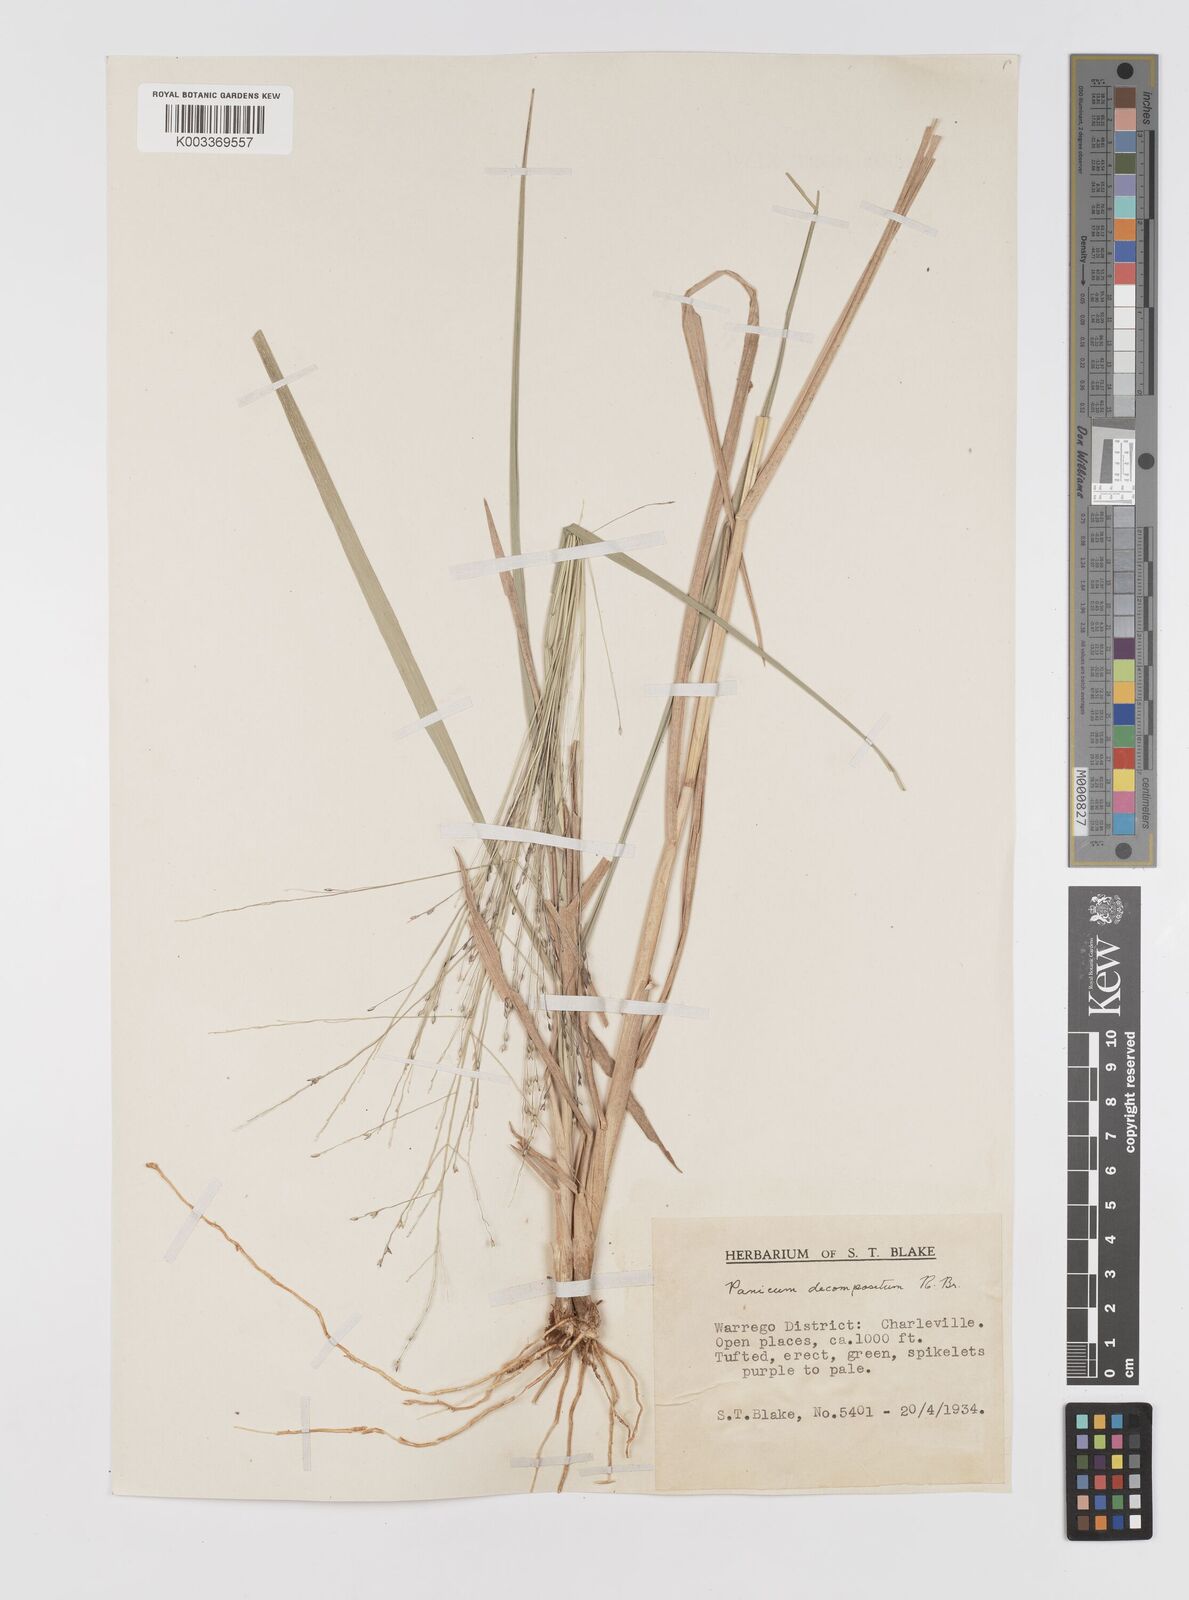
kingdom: Plantae
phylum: Tracheophyta
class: Liliopsida
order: Poales
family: Poaceae
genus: Panicum
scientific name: Panicum decompositum
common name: Australian millet
